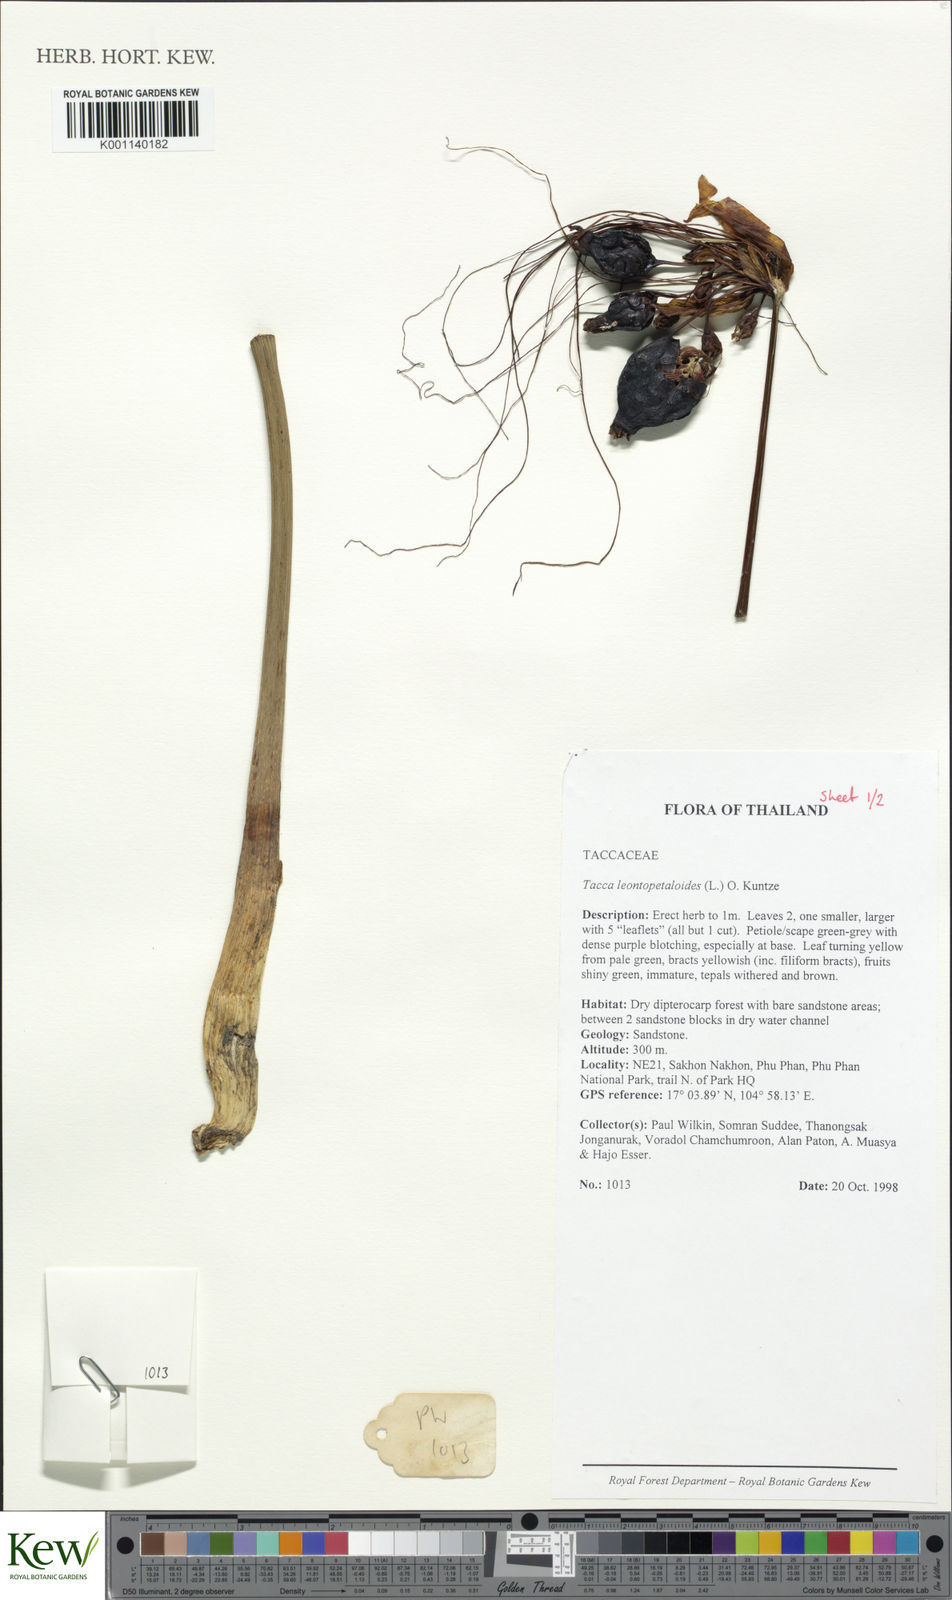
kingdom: Plantae
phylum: Tracheophyta
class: Liliopsida
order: Dioscoreales
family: Dioscoreaceae
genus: Tacca
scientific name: Tacca leontopetaloides
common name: Arrowroot
